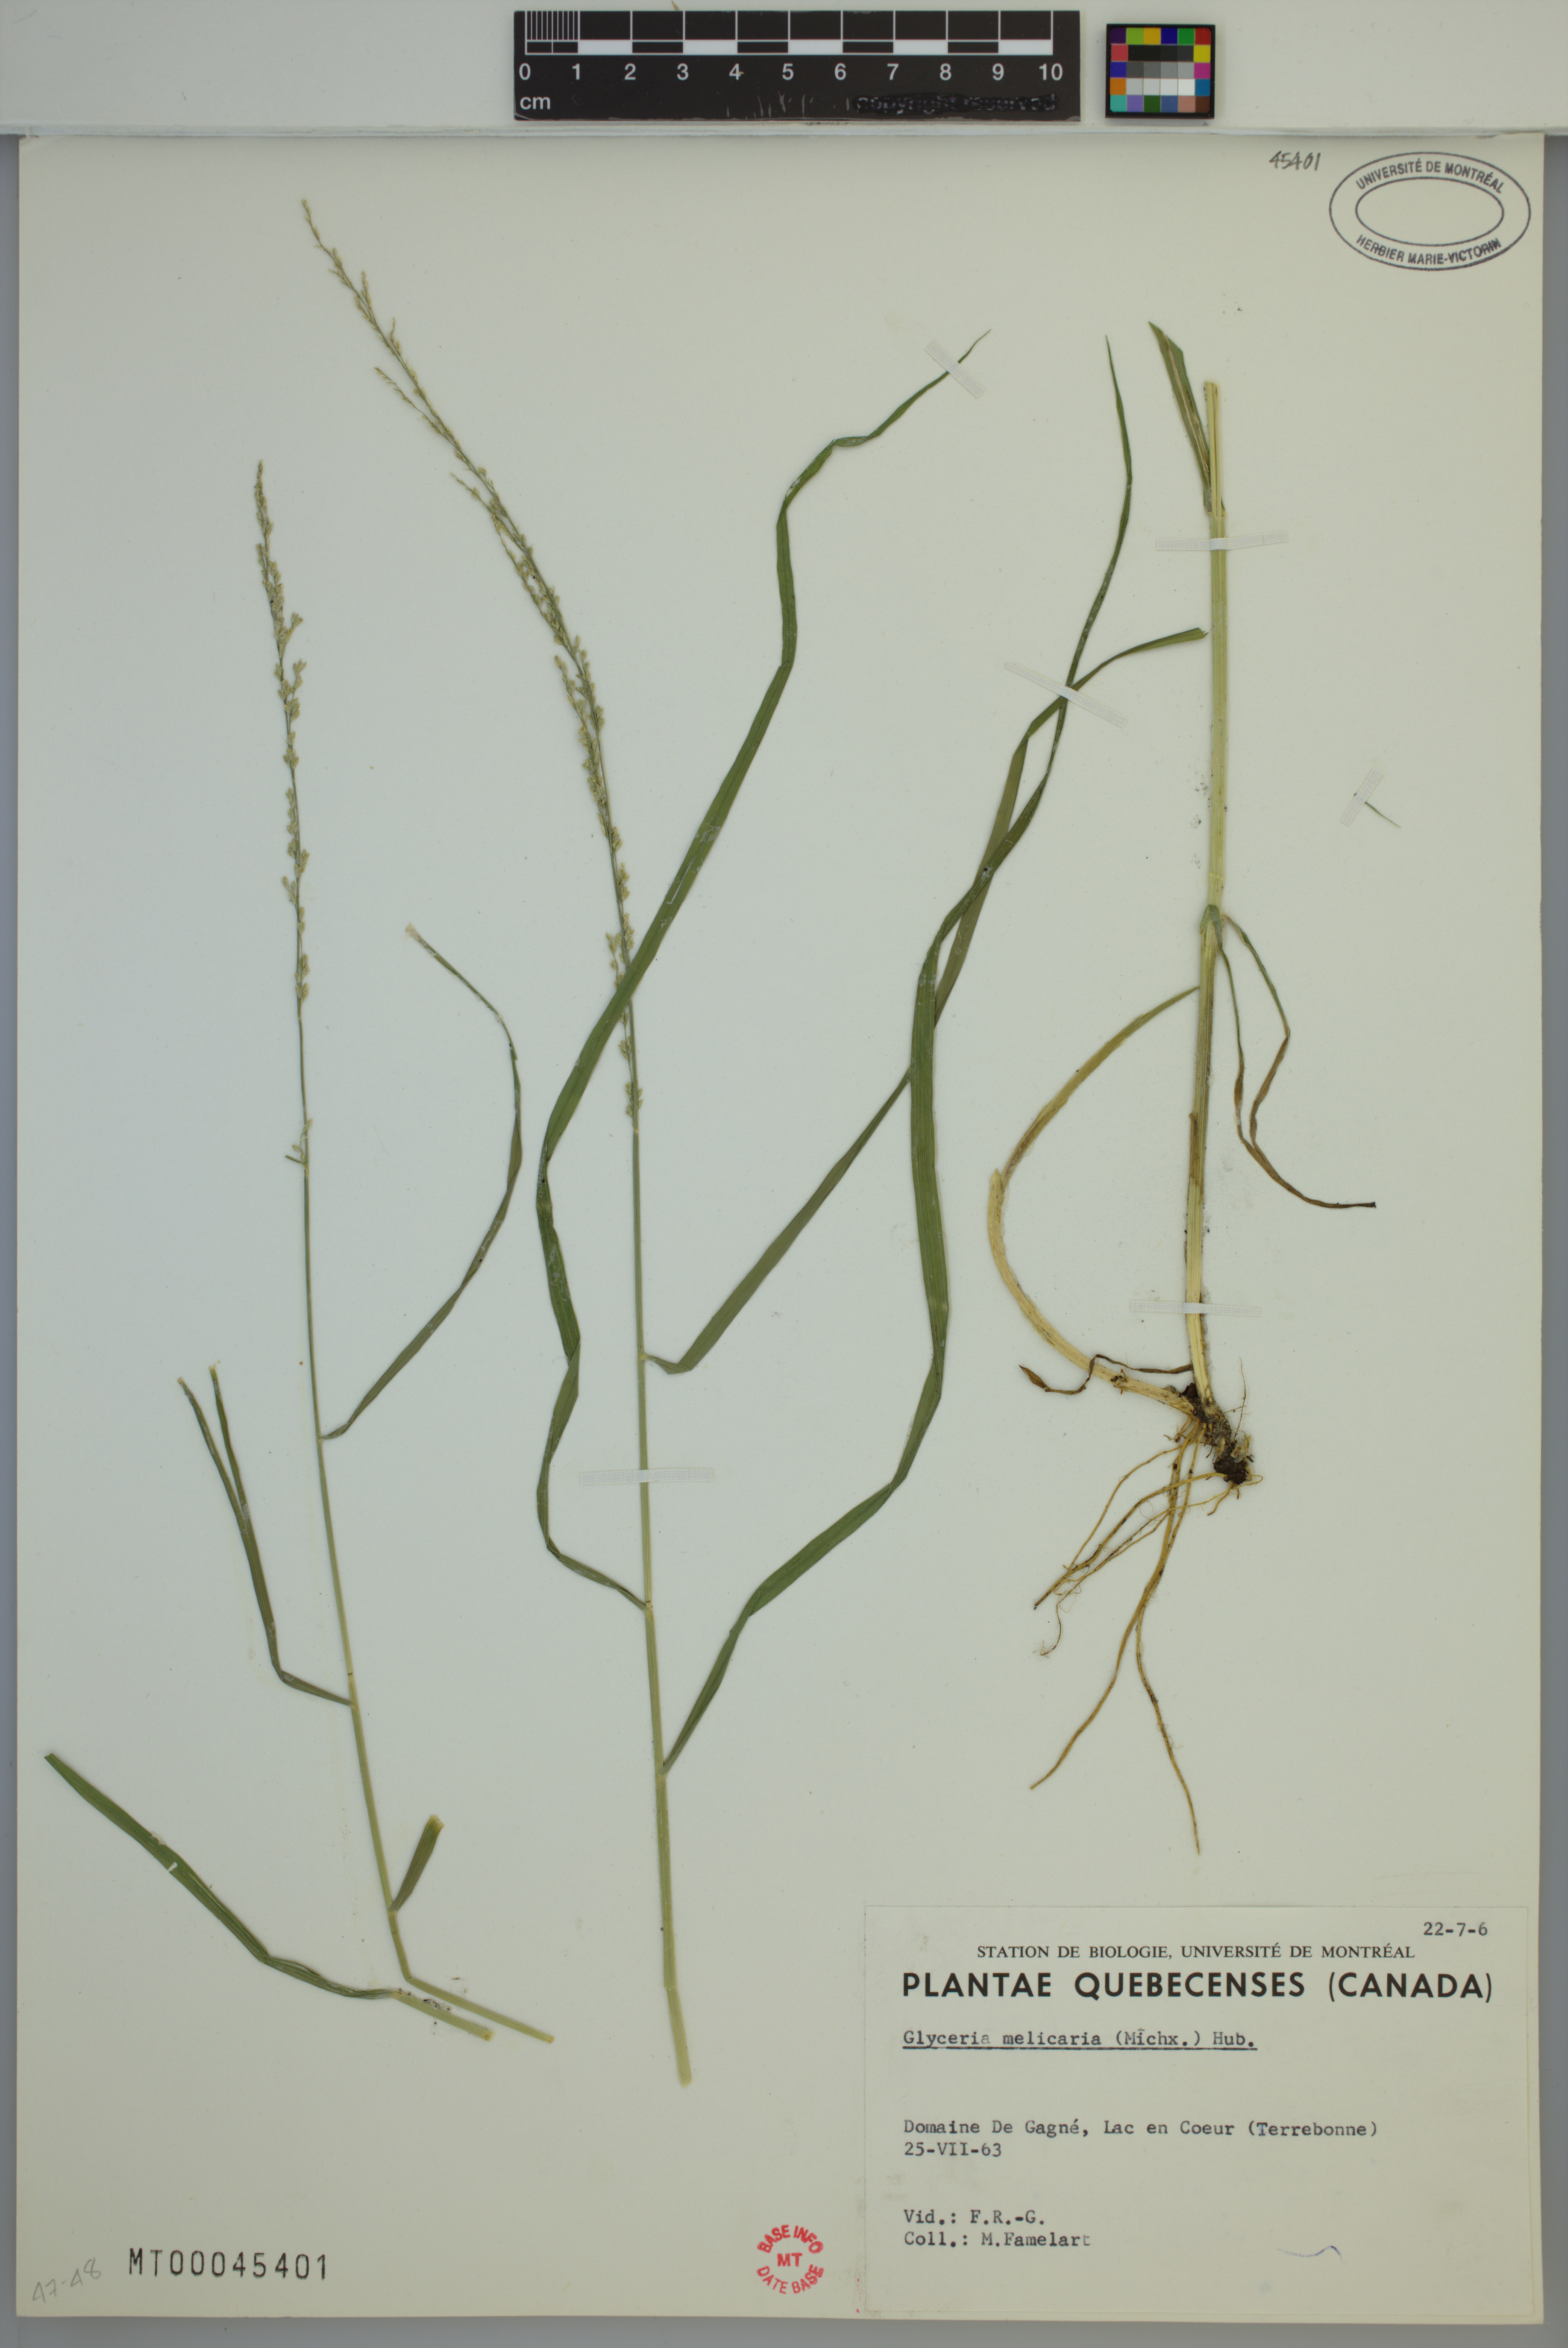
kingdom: Plantae
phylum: Tracheophyta
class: Liliopsida
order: Poales
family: Poaceae
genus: Glyceria
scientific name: Glyceria melicaria
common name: Long mannagrass
